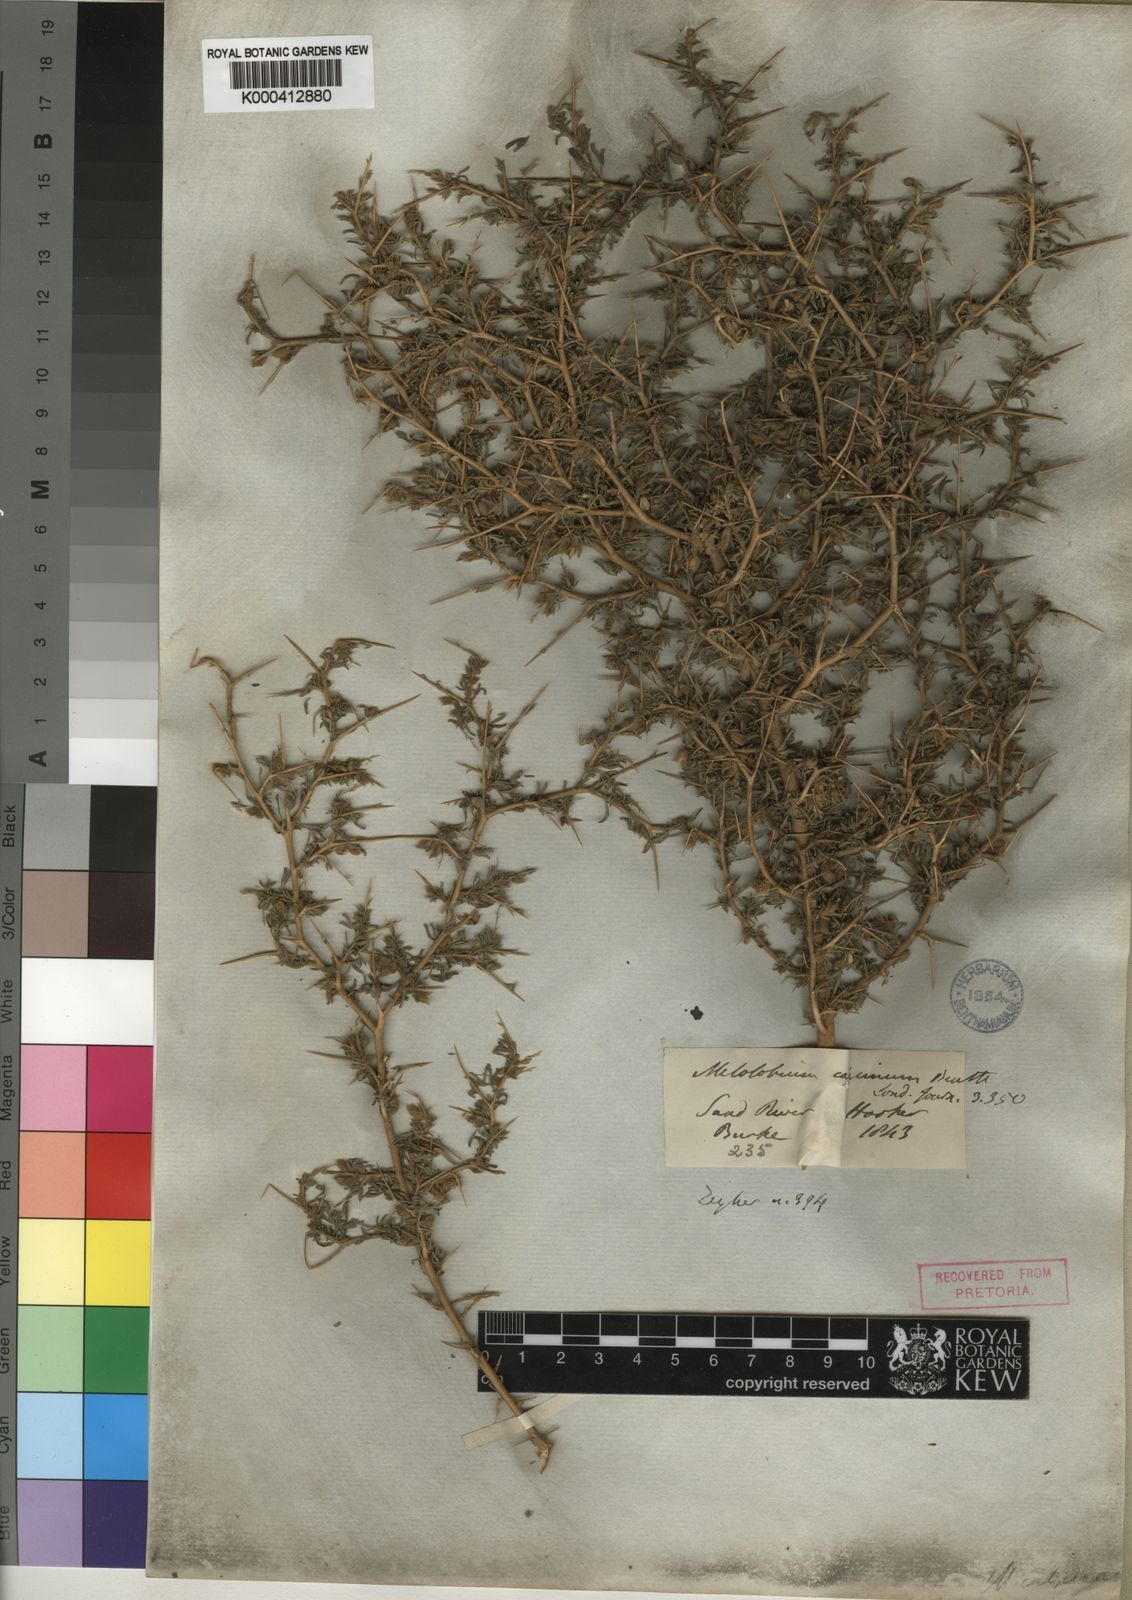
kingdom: Plantae
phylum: Tracheophyta
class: Magnoliopsida
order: Fabales
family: Fabaceae
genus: Melolobium
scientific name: Melolobium calycinum
